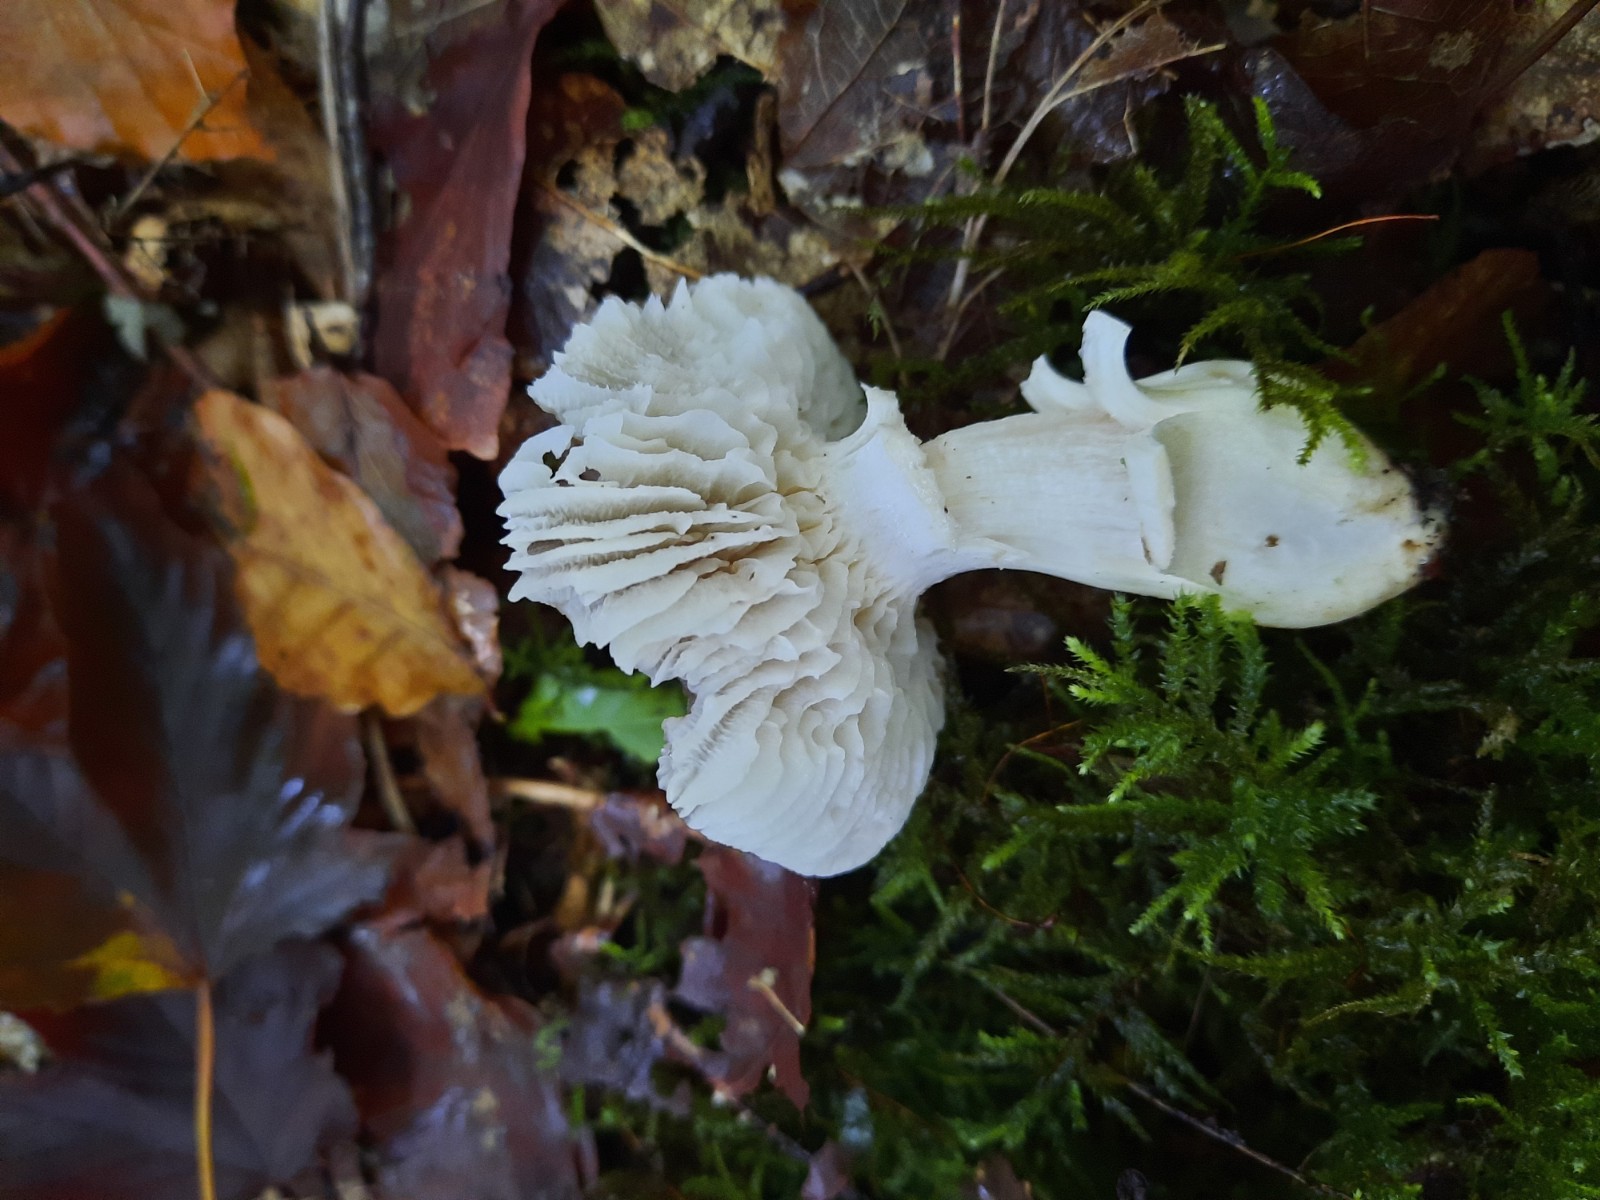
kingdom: Fungi
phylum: Basidiomycota
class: Agaricomycetes
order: Agaricales
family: Hygrophoraceae
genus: Cuphophyllus
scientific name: Cuphophyllus fornicatus
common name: gråbrun vokshat
